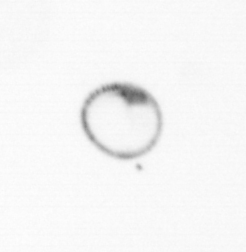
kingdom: Chromista
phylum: Myzozoa
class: Dinophyceae
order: Noctilucales
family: Noctilucaceae
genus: Noctiluca
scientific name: Noctiluca scintillans
